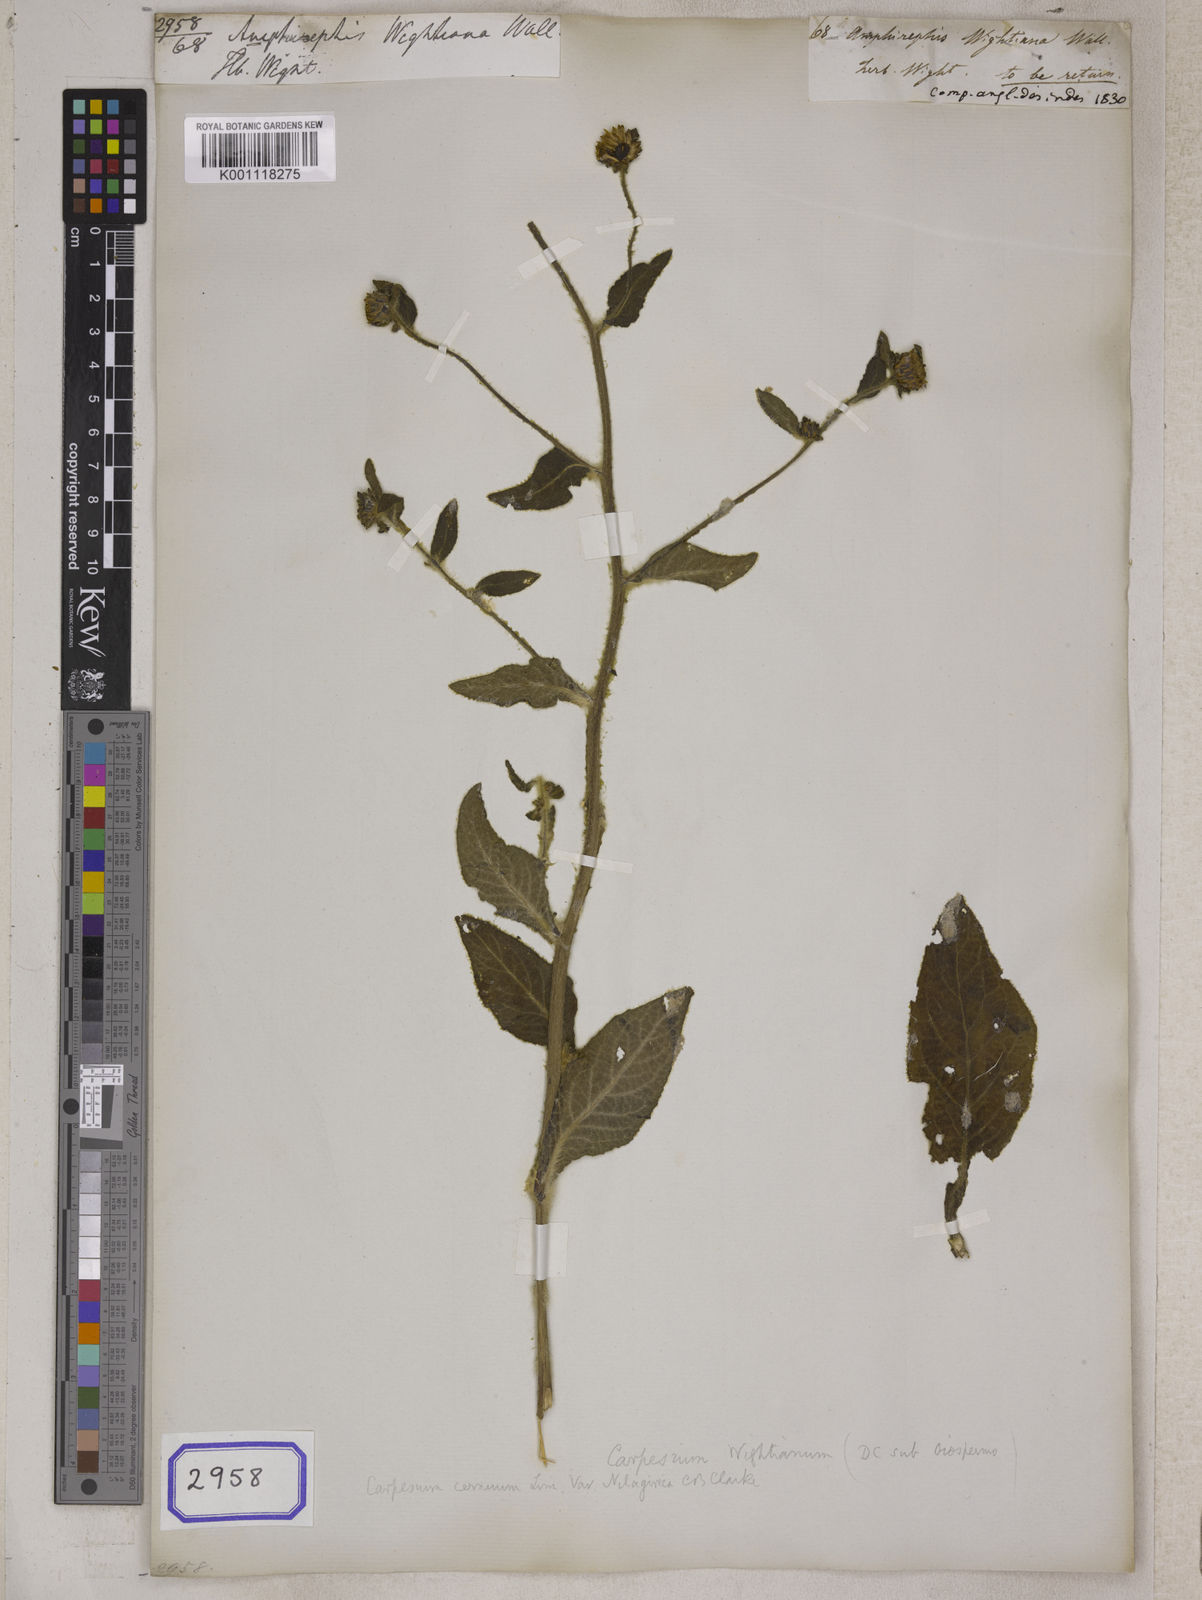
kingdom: Plantae
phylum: Tracheophyta
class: Magnoliopsida
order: Asterales
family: Asteraceae
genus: Carpesium
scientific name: Carpesium cernuum
